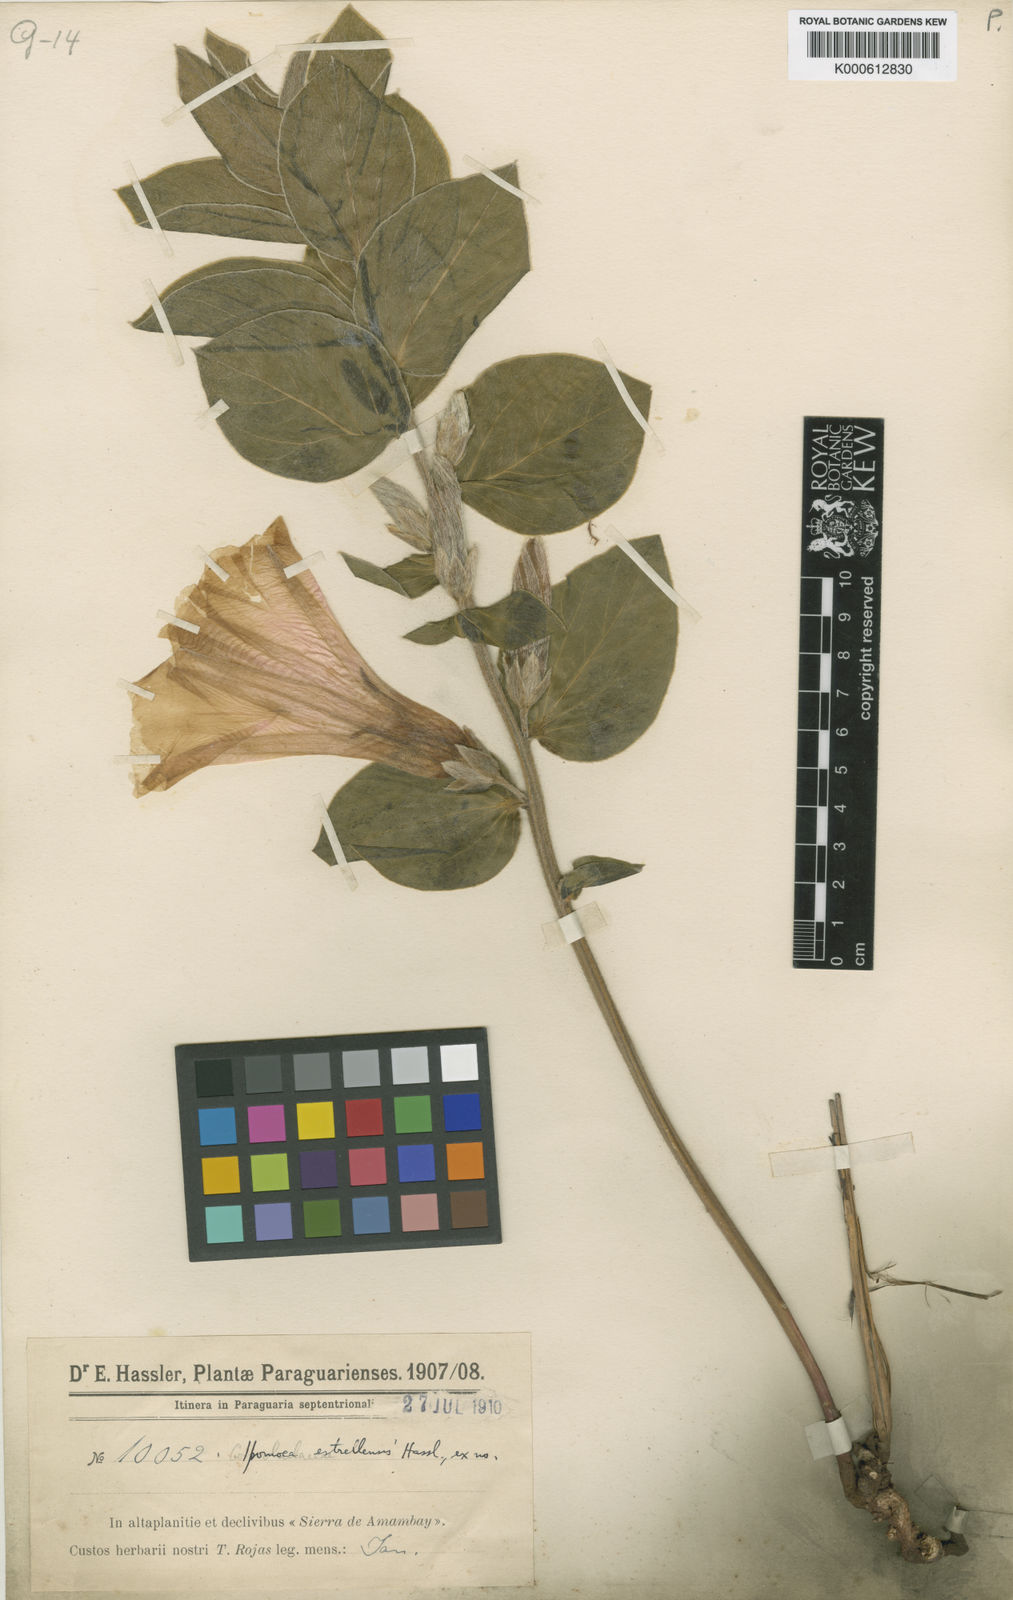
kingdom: Plantae
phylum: Tracheophyta
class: Magnoliopsida
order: Solanales
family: Convolvulaceae
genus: Ipomoea
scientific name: Ipomoea
